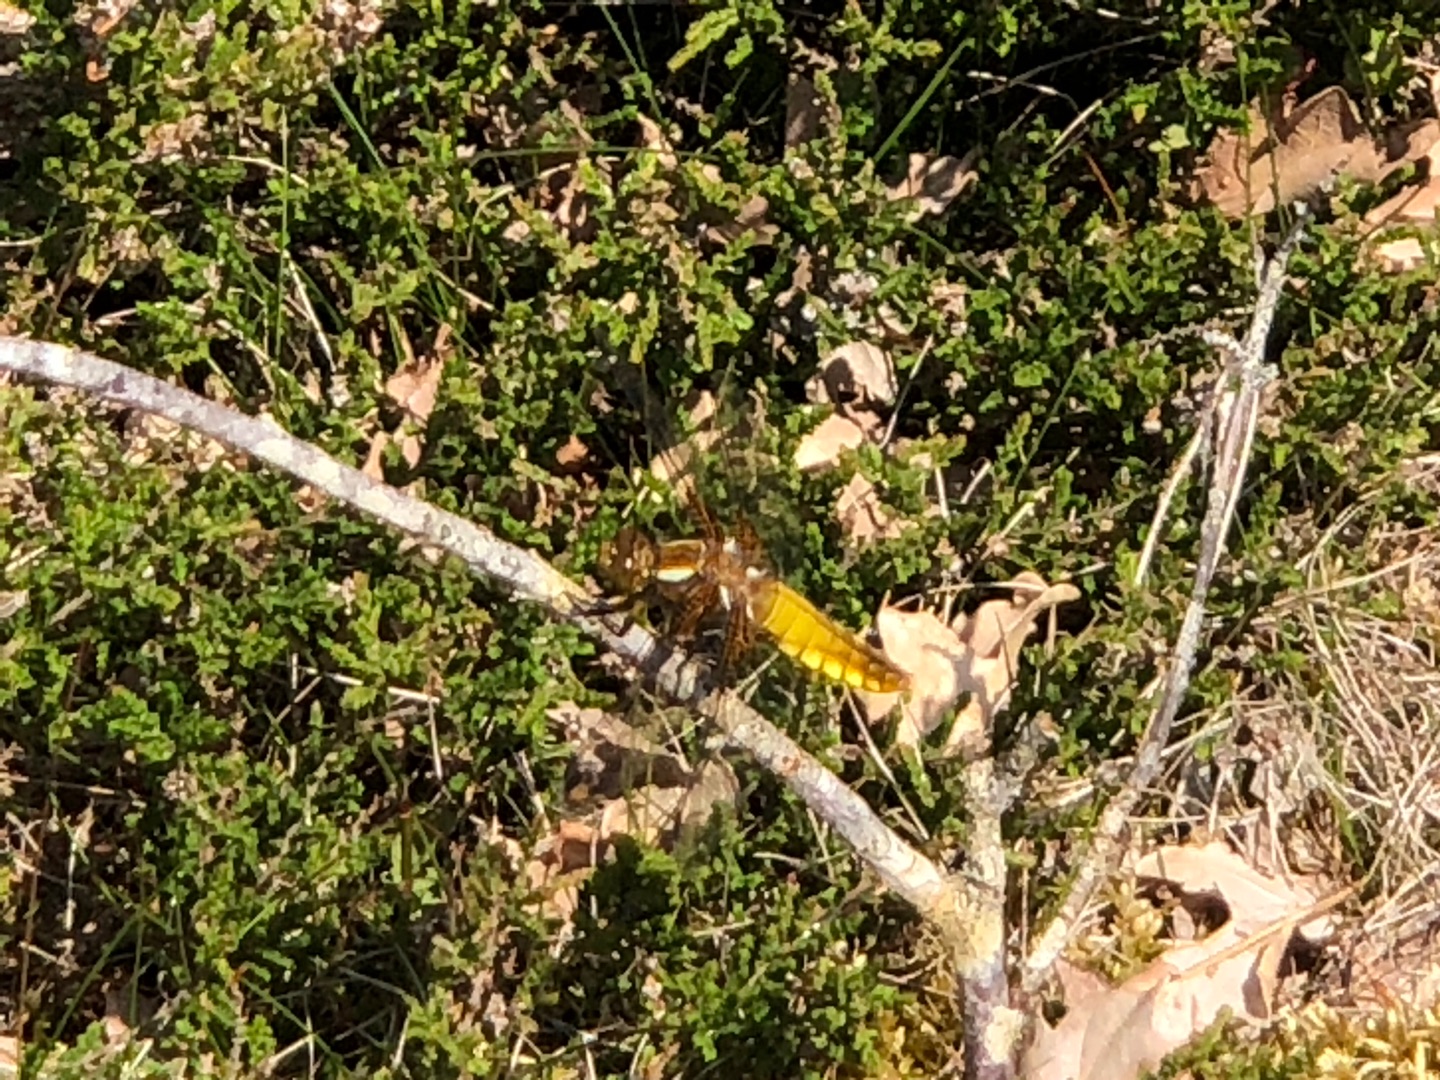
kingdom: Animalia
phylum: Arthropoda
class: Insecta
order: Odonata
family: Libellulidae
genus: Libellula
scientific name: Libellula depressa
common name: Blå libel
